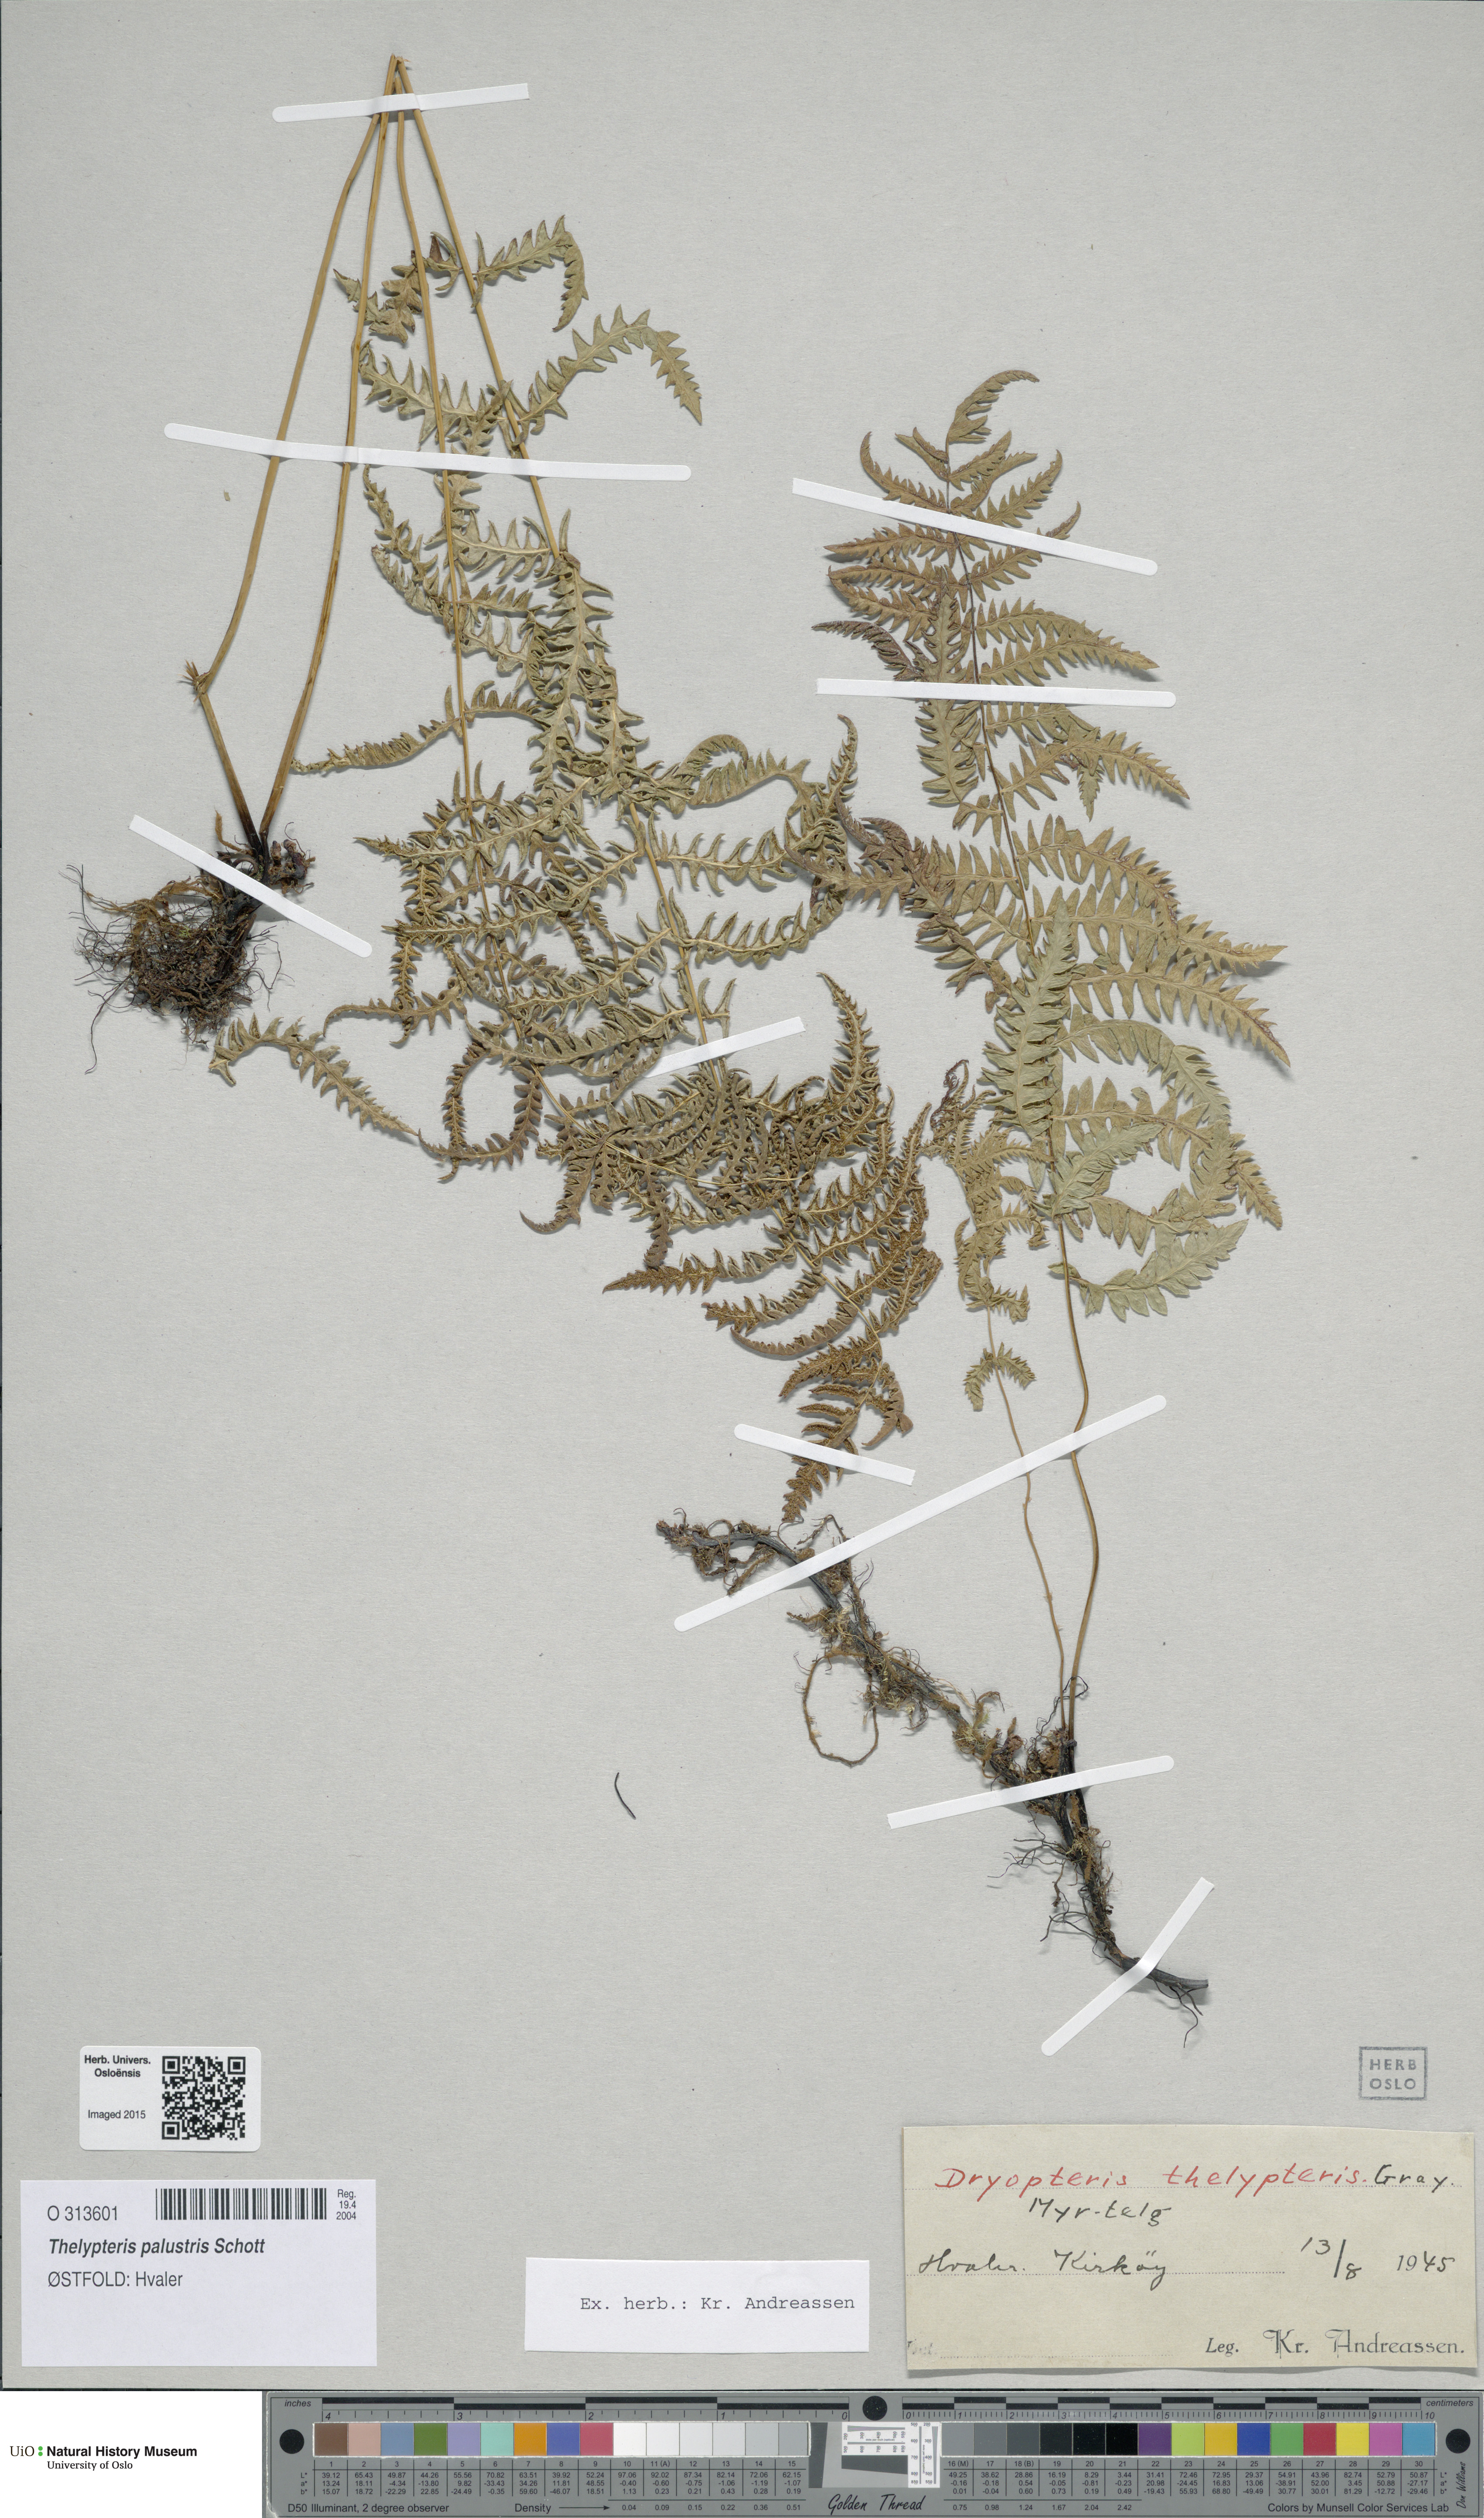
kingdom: Plantae
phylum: Tracheophyta
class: Polypodiopsida
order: Polypodiales
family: Thelypteridaceae
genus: Thelypteris
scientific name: Thelypteris palustris
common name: Marsh fern
